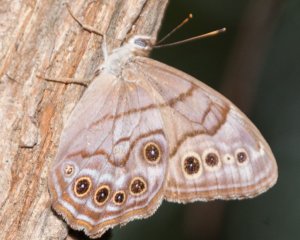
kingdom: Animalia
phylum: Arthropoda
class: Insecta
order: Lepidoptera
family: Nymphalidae
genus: Lethe
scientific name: Lethe anthedon
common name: Northern Pearly-Eye
